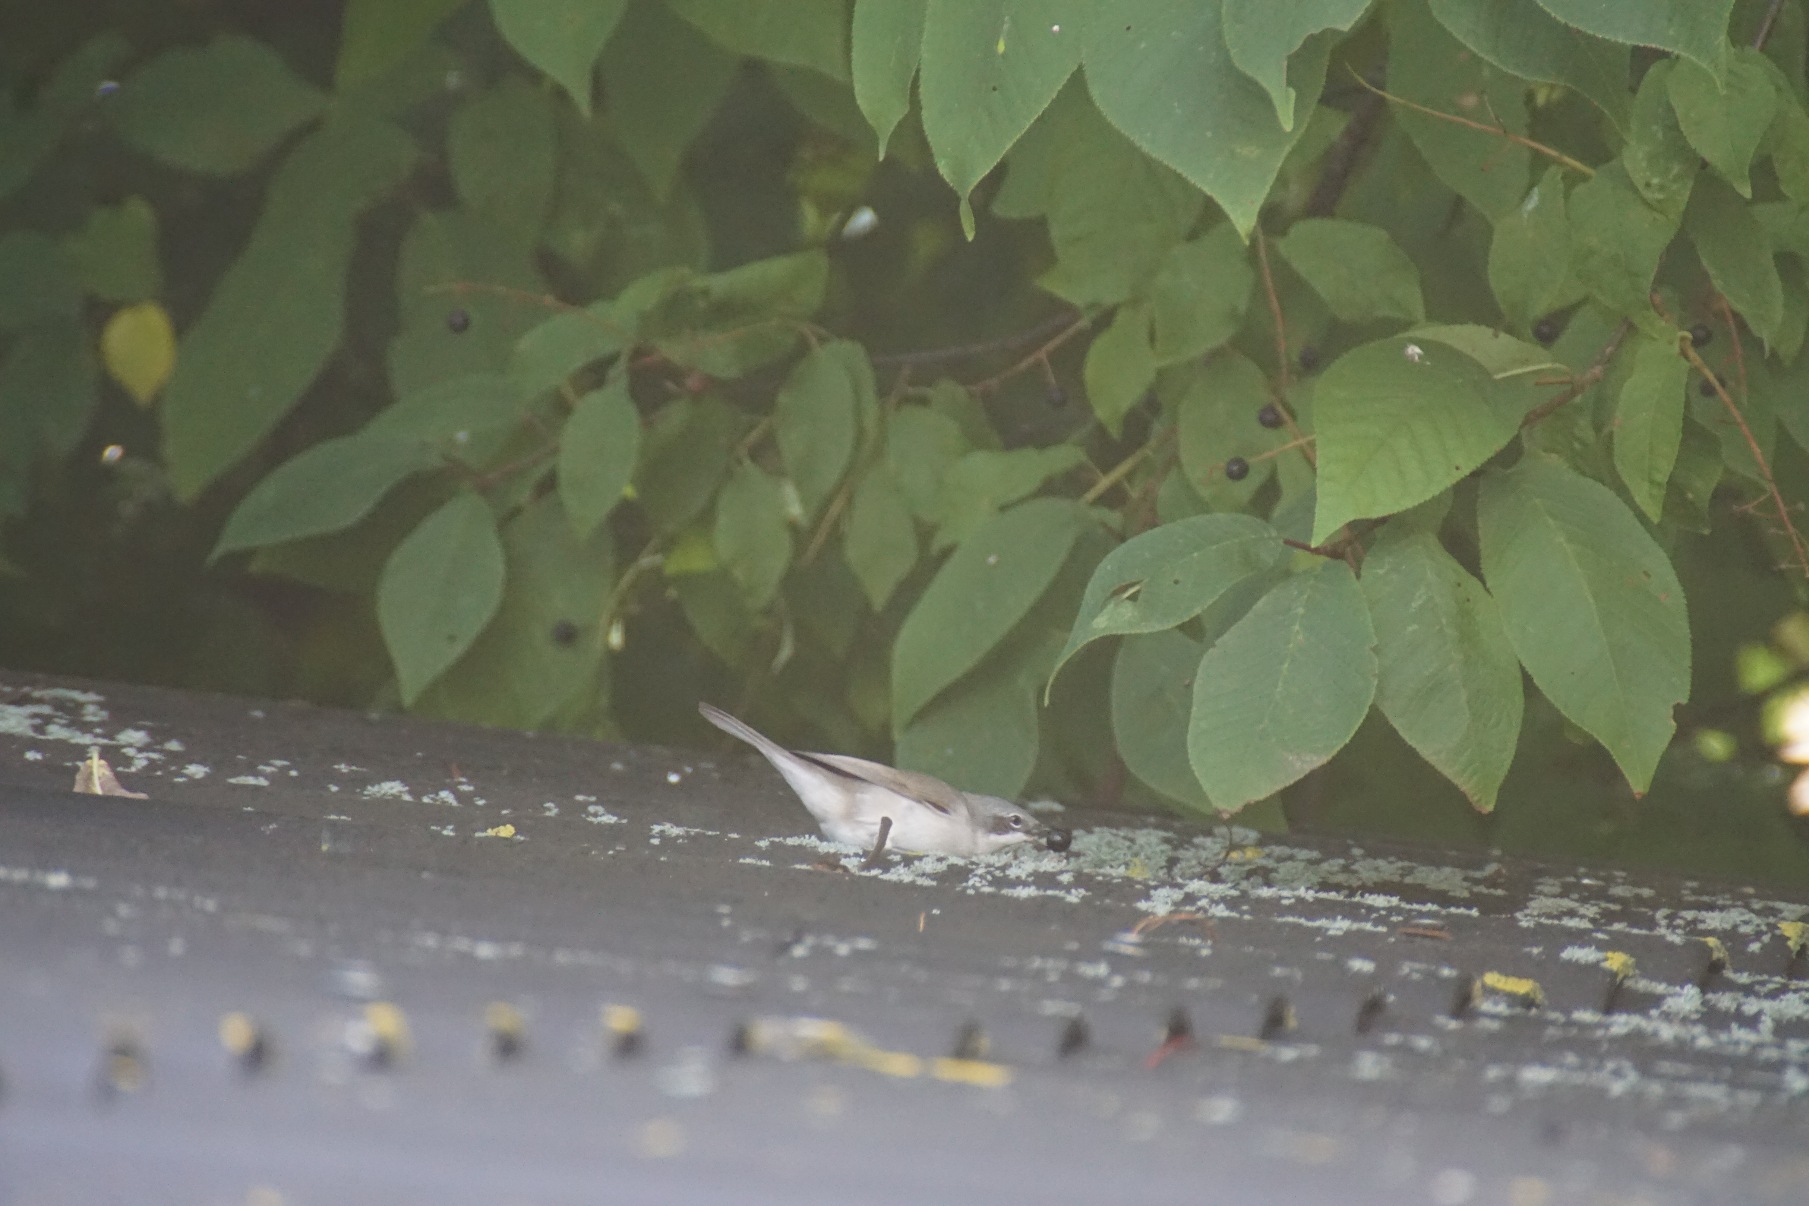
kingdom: Animalia
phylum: Chordata
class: Aves
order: Passeriformes
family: Sylviidae
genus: Sylvia
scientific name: Sylvia curruca
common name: Gærdesanger
